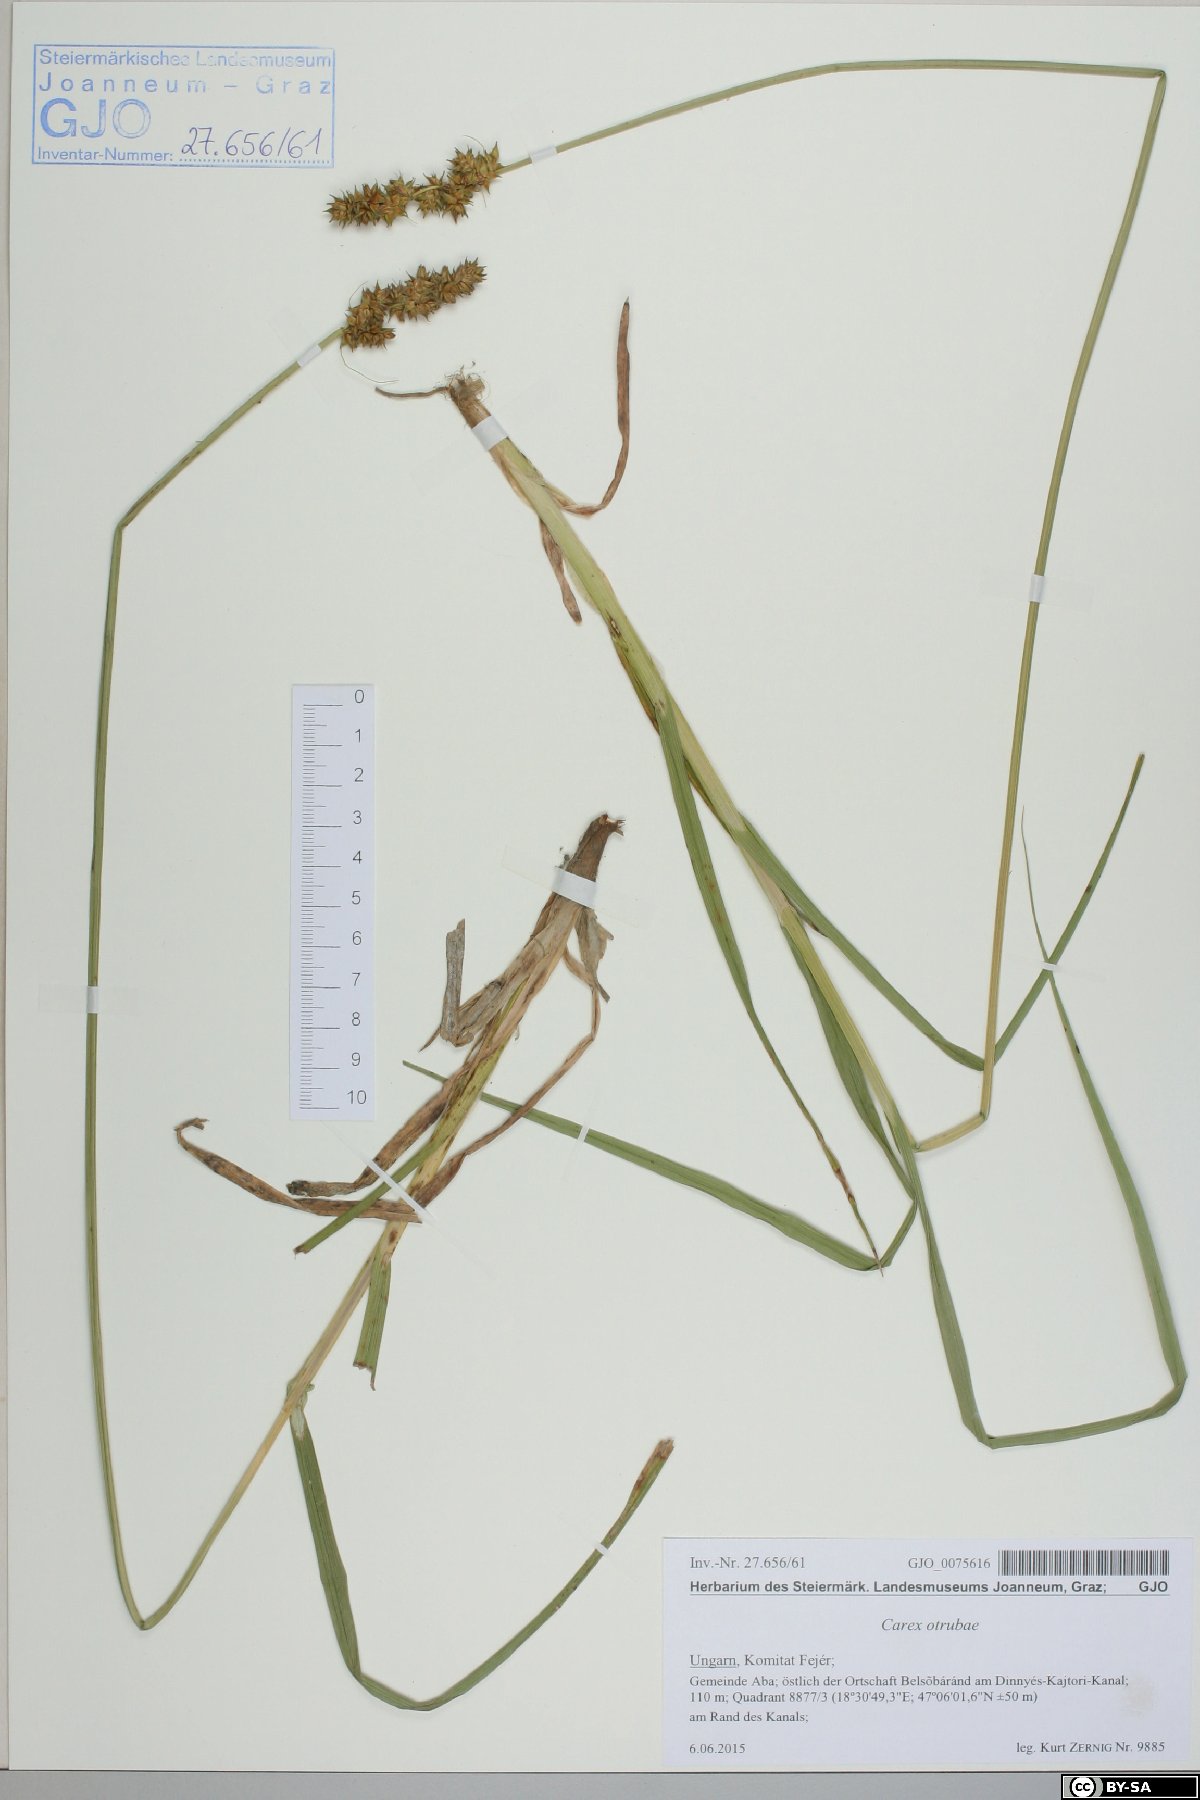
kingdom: Plantae
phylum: Tracheophyta
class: Liliopsida
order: Poales
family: Cyperaceae
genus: Carex
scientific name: Carex otrubae
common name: False fox-sedge
